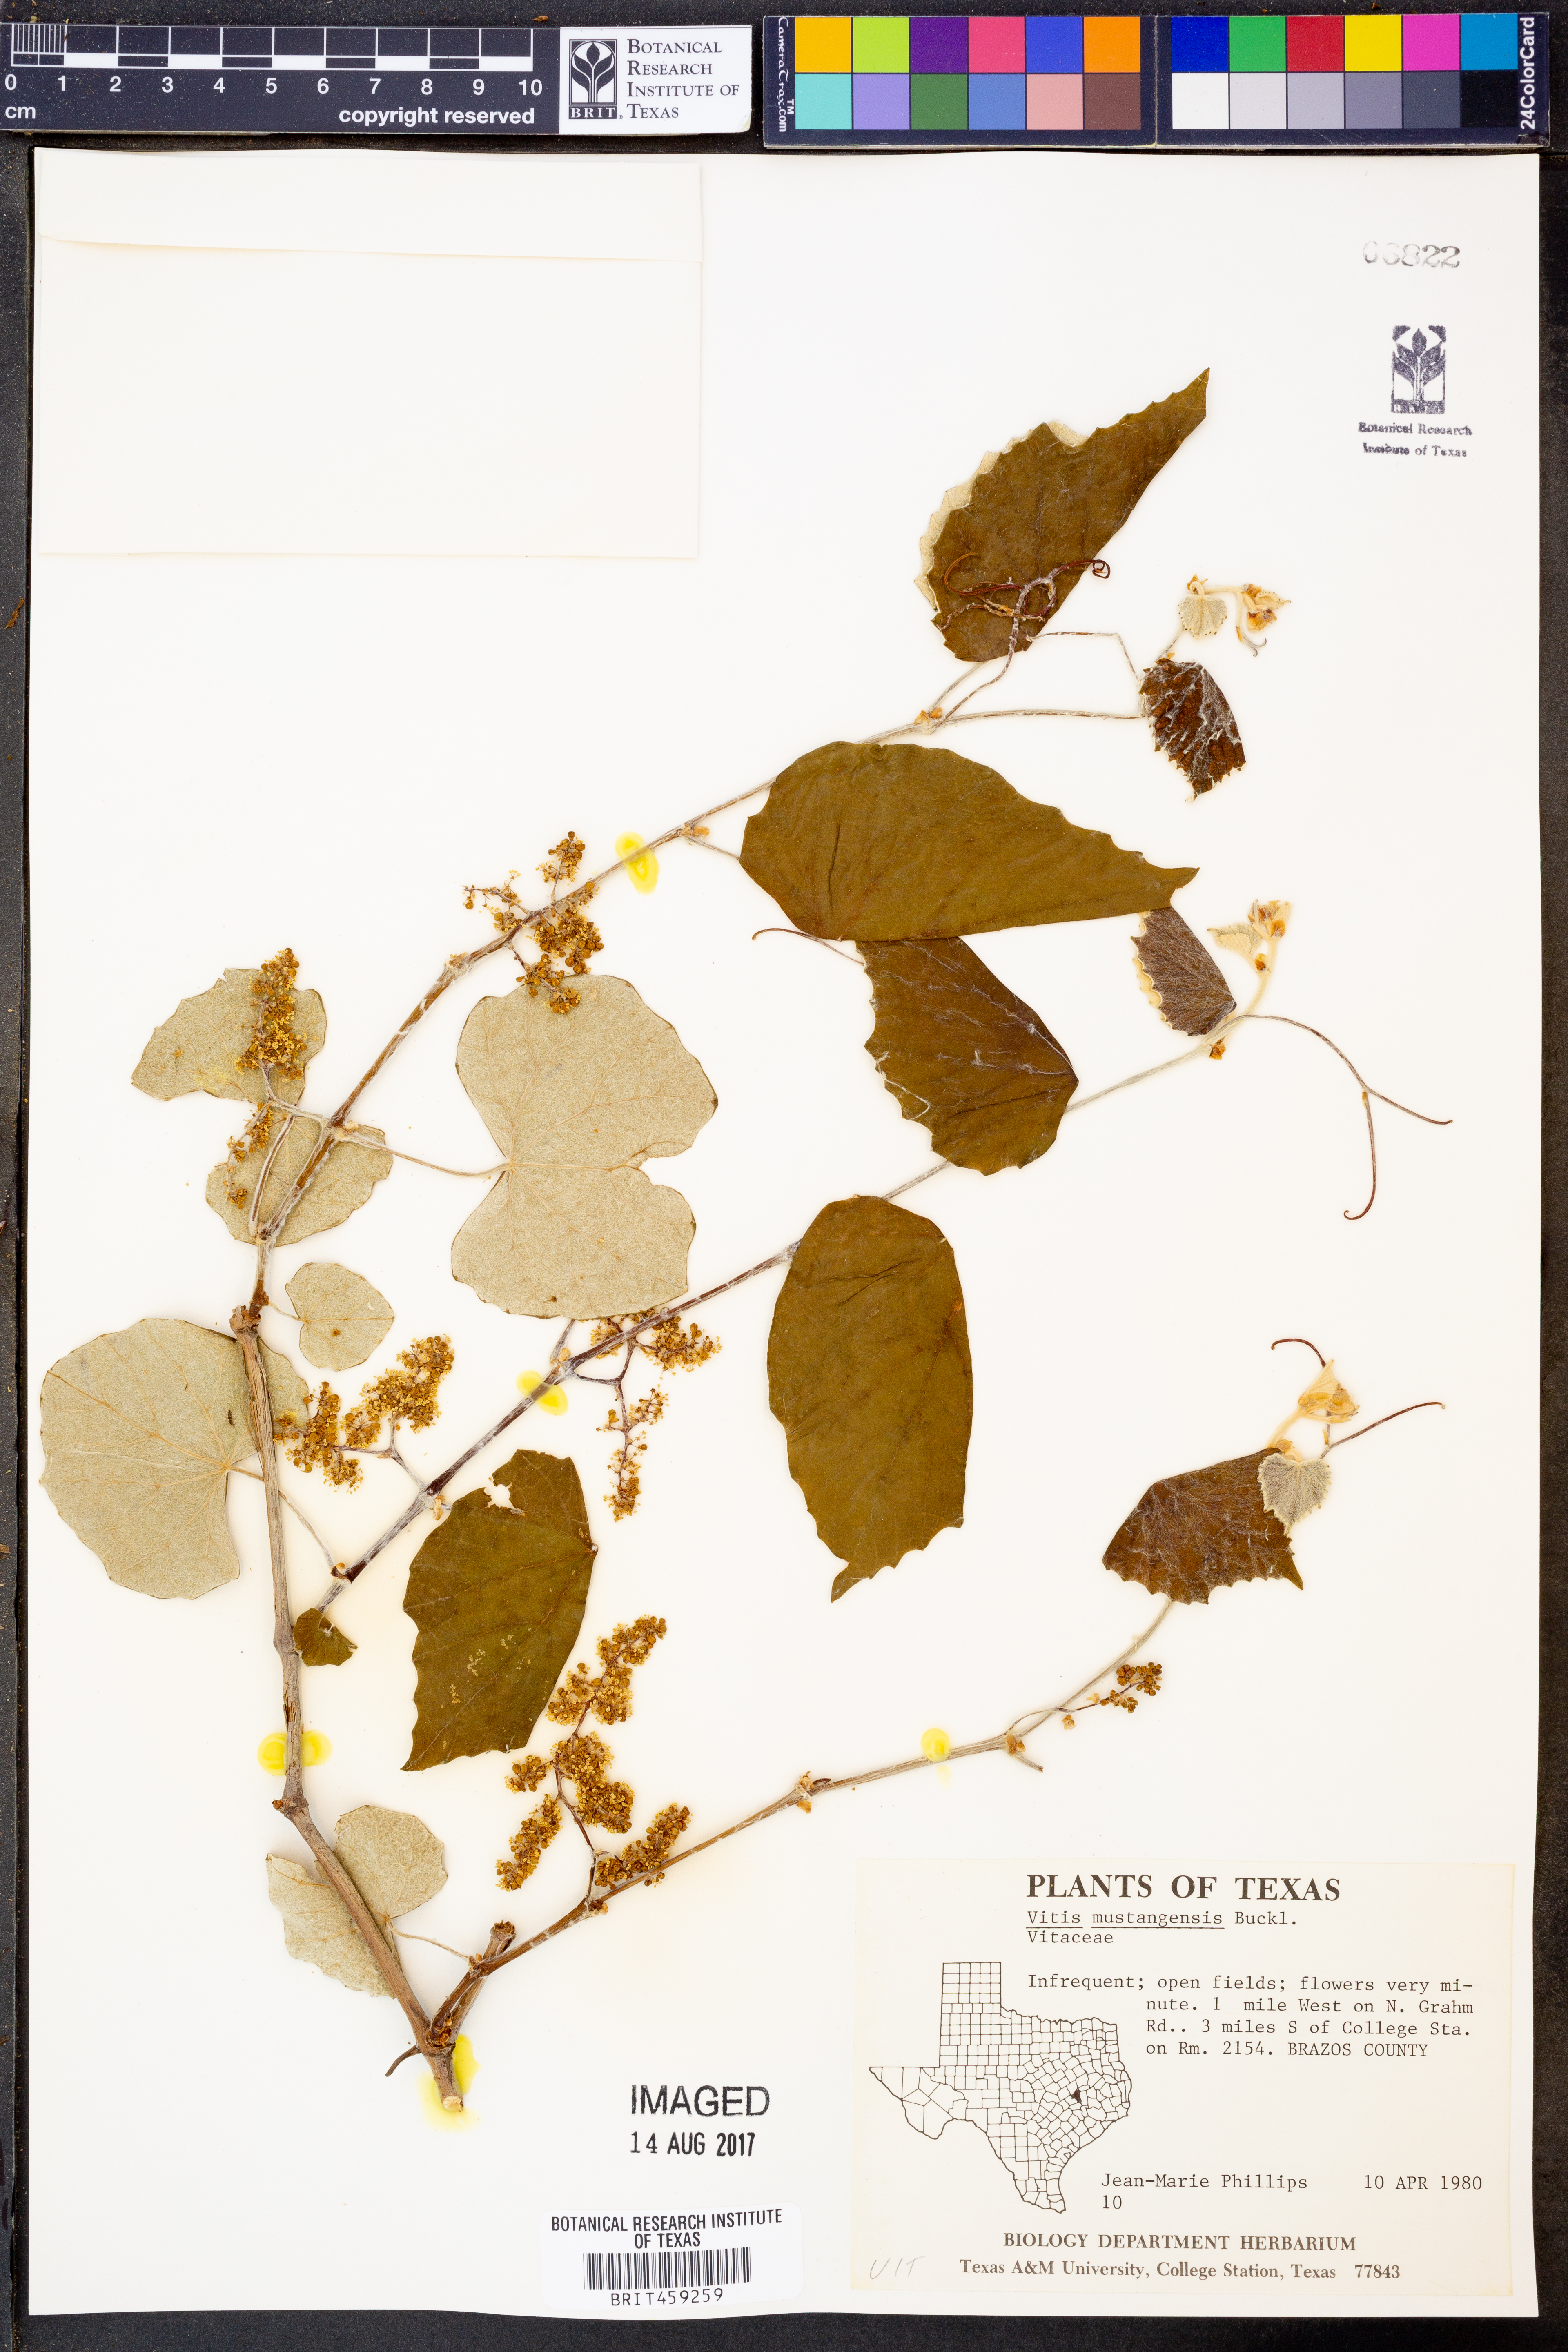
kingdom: Plantae
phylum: Tracheophyta
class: Magnoliopsida
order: Vitales
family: Vitaceae
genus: Vitis
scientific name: Vitis mustangensis
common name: Mustang grape
